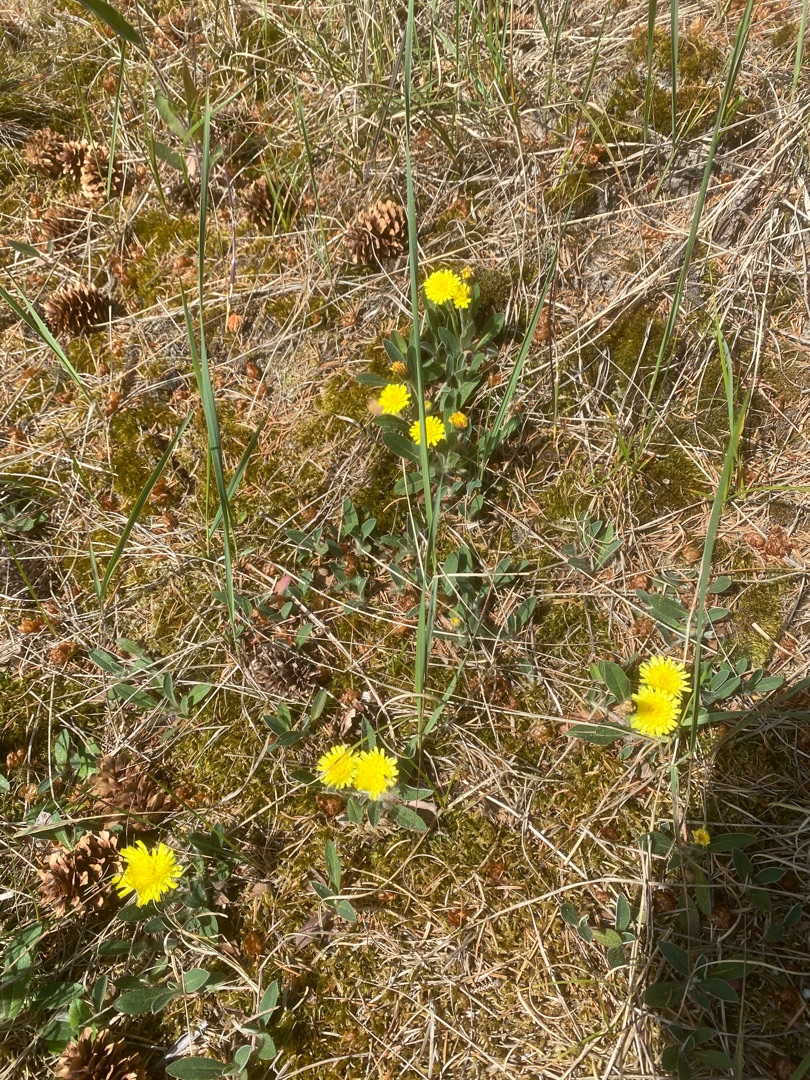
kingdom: Plantae
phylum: Tracheophyta
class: Magnoliopsida
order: Asterales
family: Asteraceae
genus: Pilosella
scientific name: Pilosella officinarum
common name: Håret høgeurt
